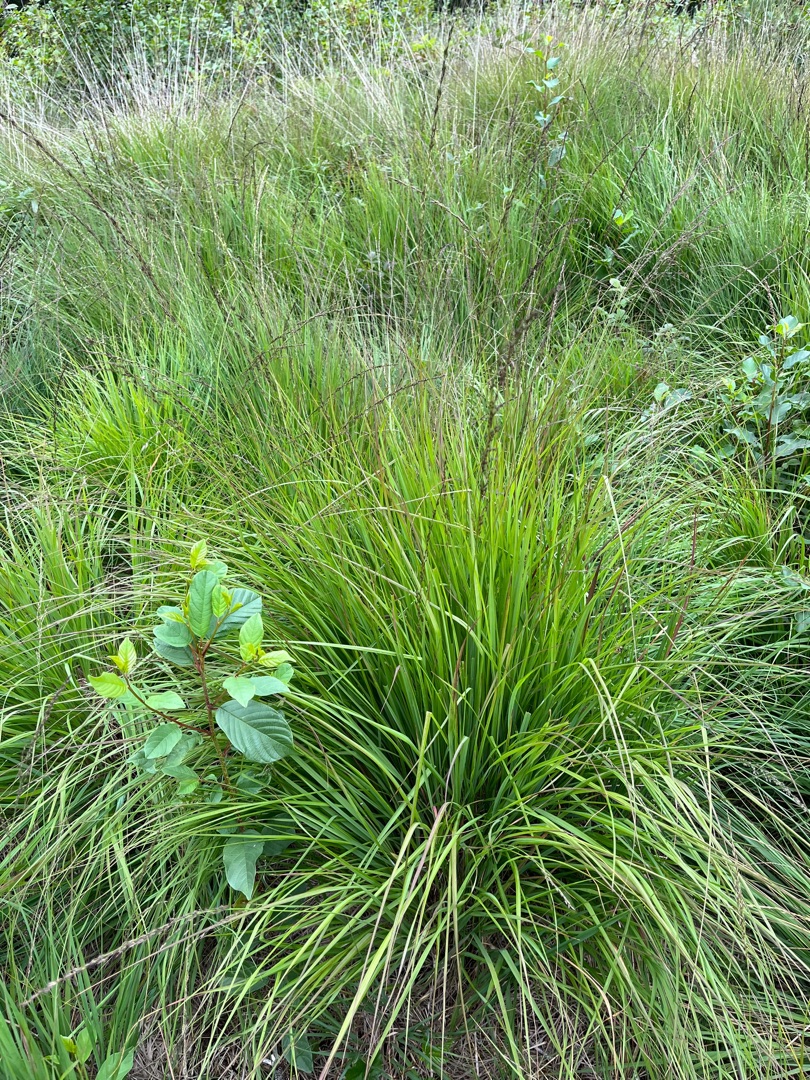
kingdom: Plantae
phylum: Tracheophyta
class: Liliopsida
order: Poales
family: Poaceae
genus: Molinia
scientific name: Molinia caerulea
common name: Blåtop
